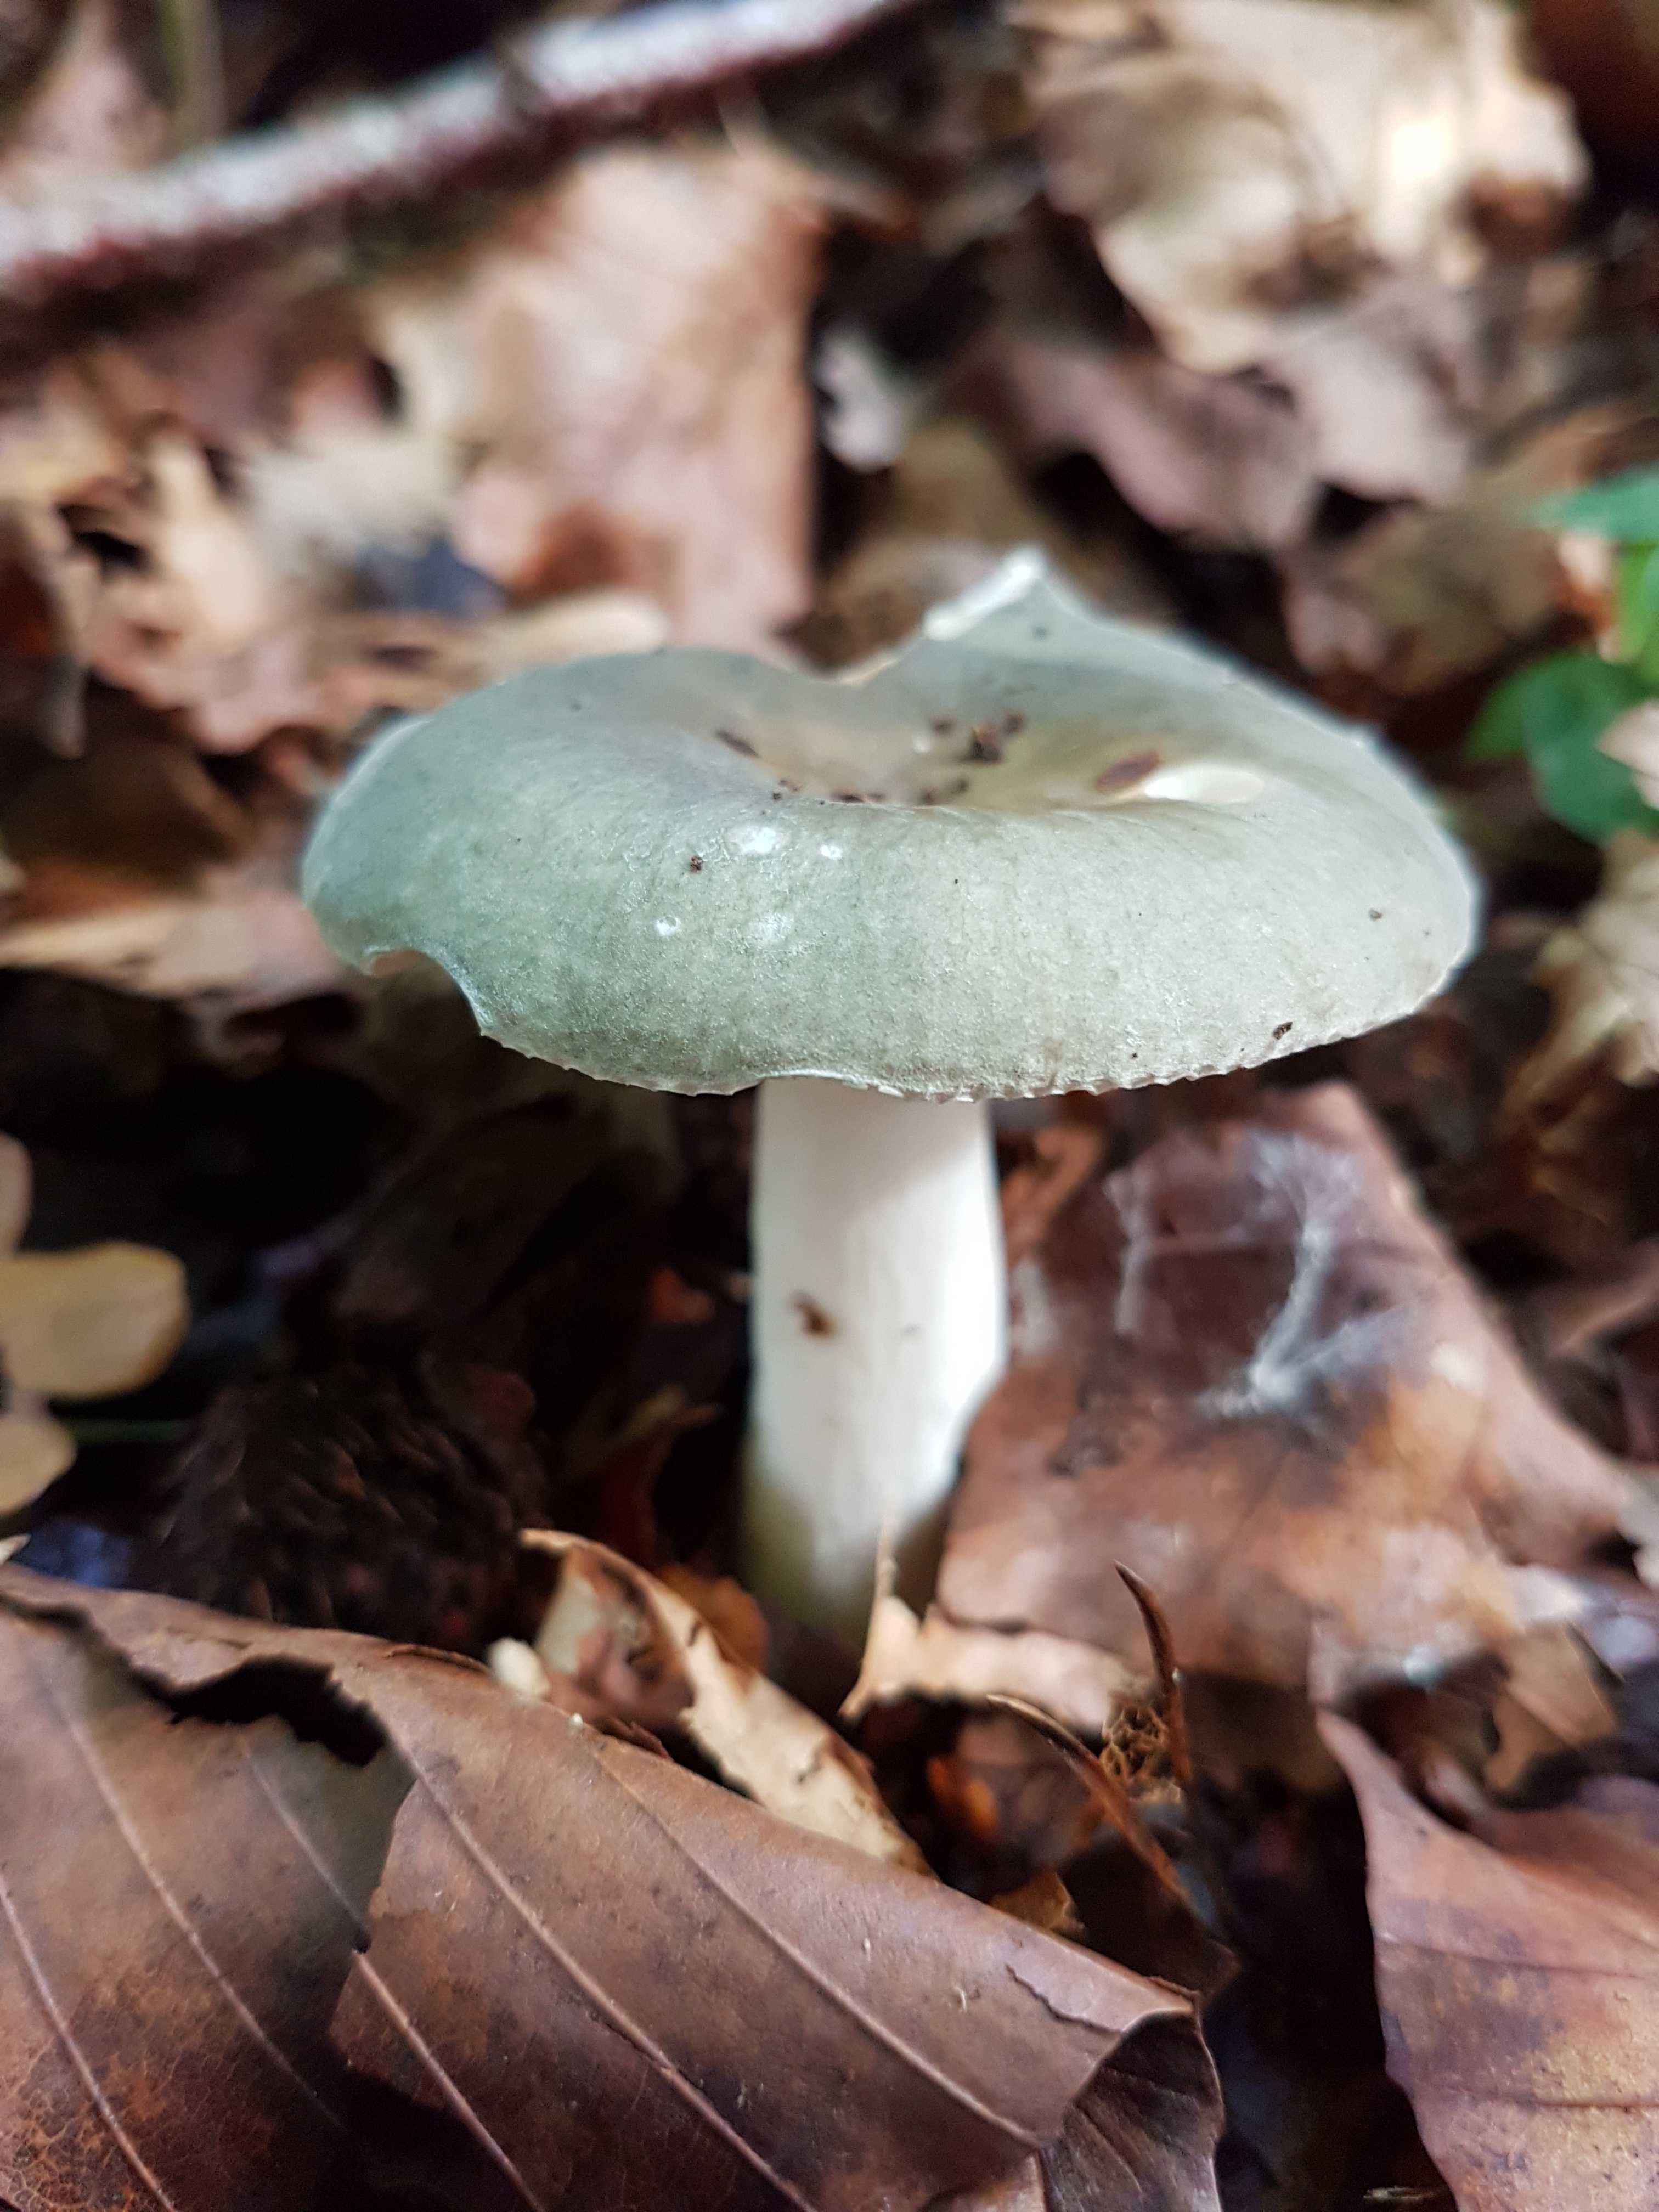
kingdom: Fungi
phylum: Basidiomycota
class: Agaricomycetes
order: Russulales
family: Russulaceae
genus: Russula
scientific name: Russula
